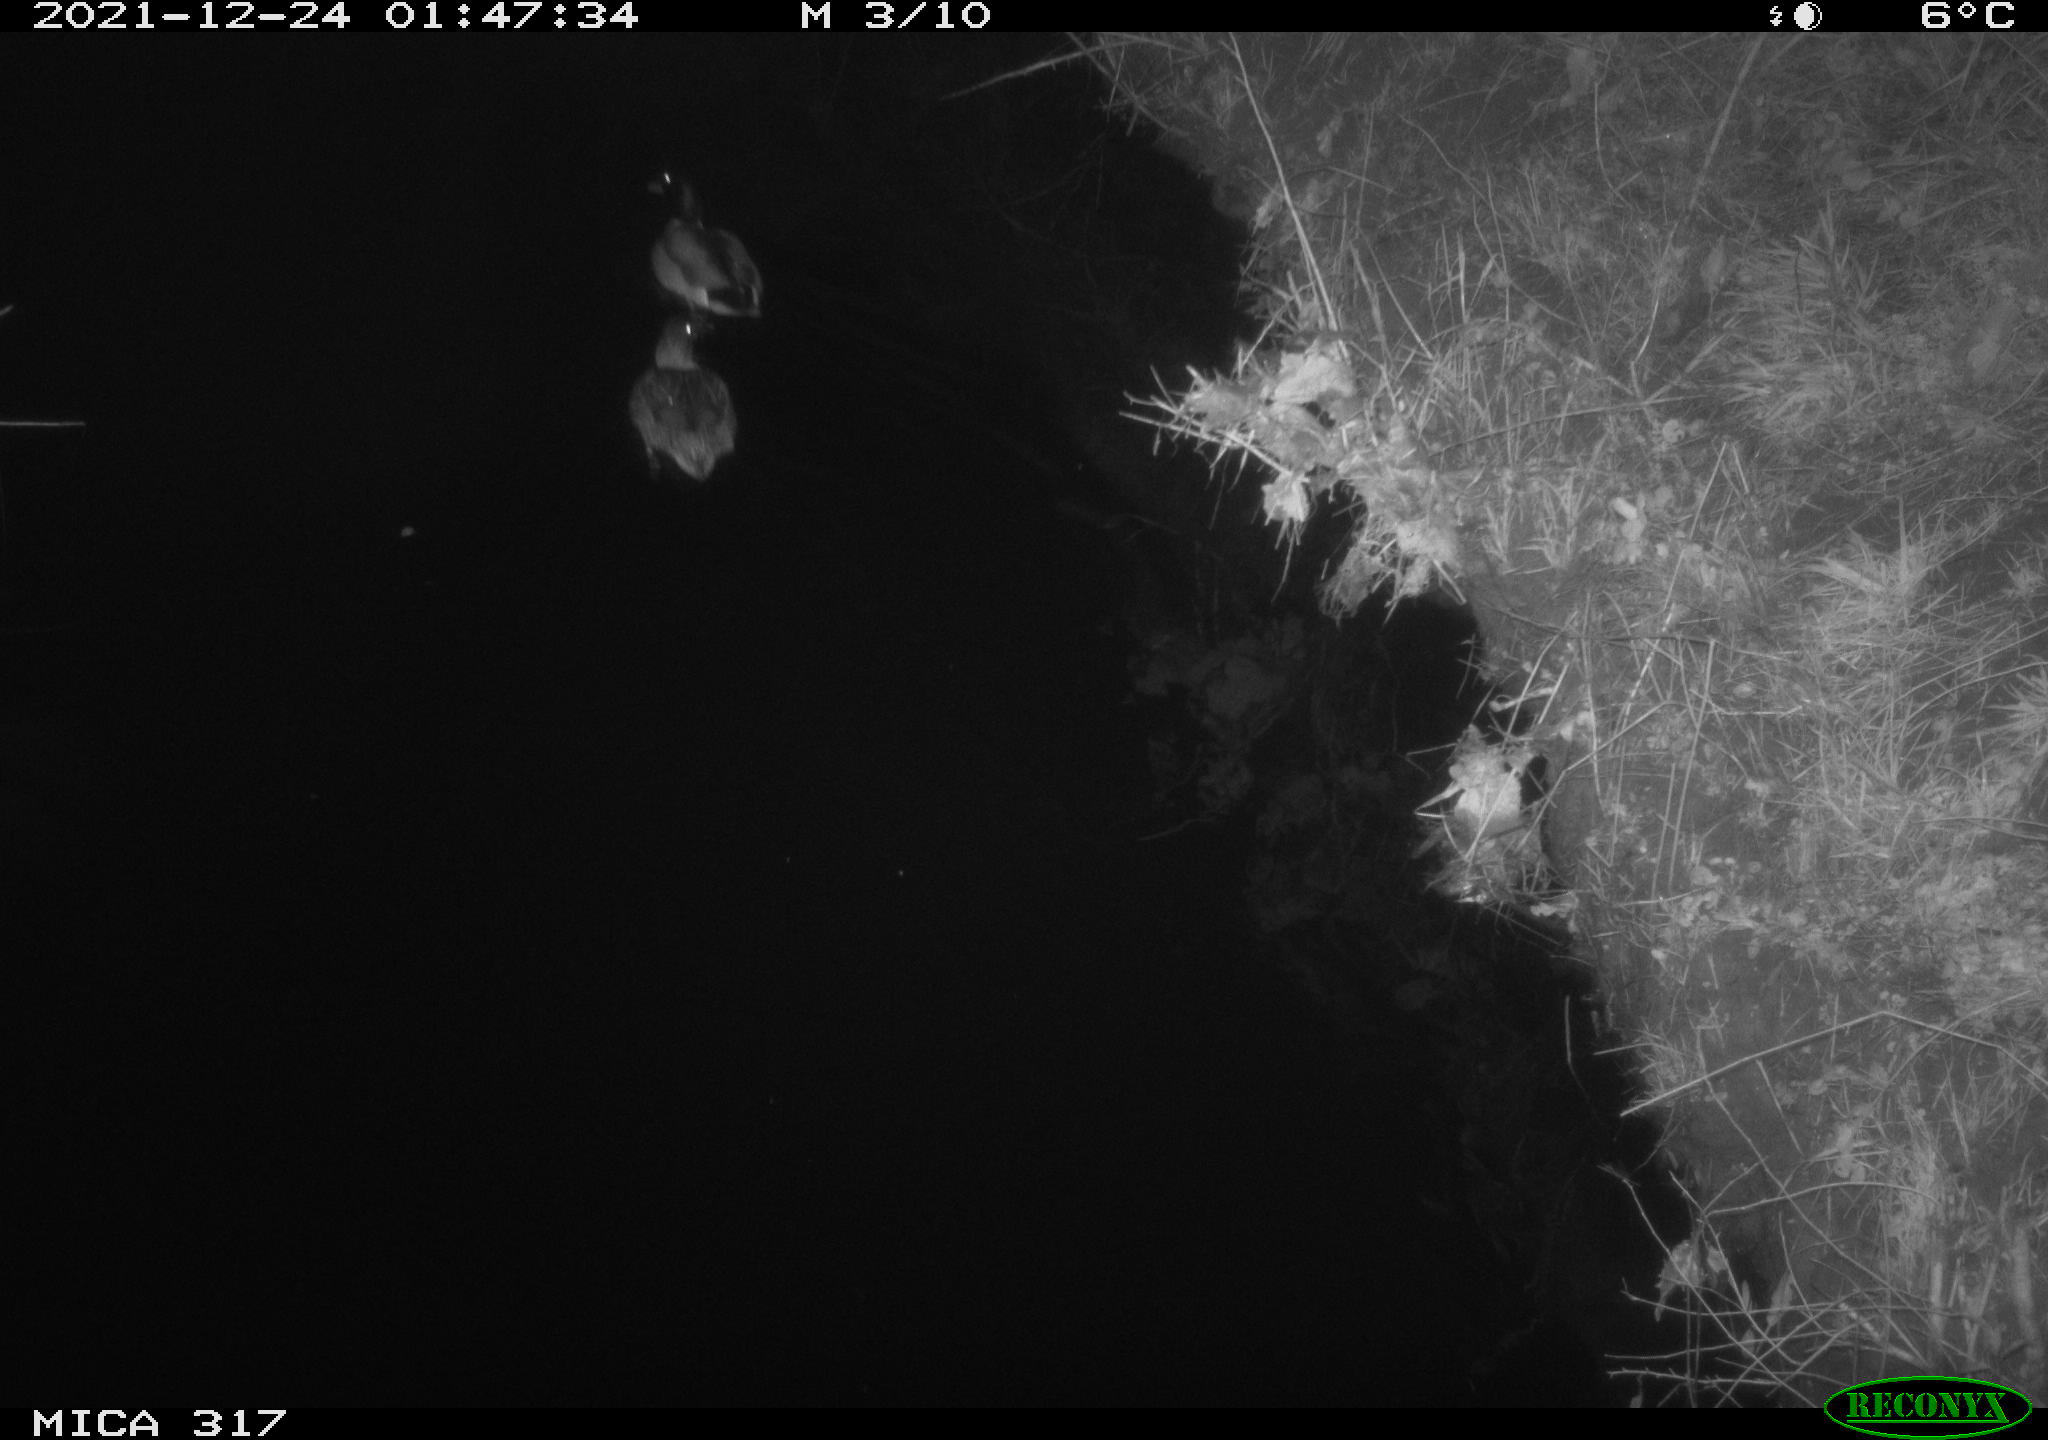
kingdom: Animalia
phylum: Chordata
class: Aves
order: Anseriformes
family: Anatidae
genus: Anas
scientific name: Anas platyrhynchos
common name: Mallard
